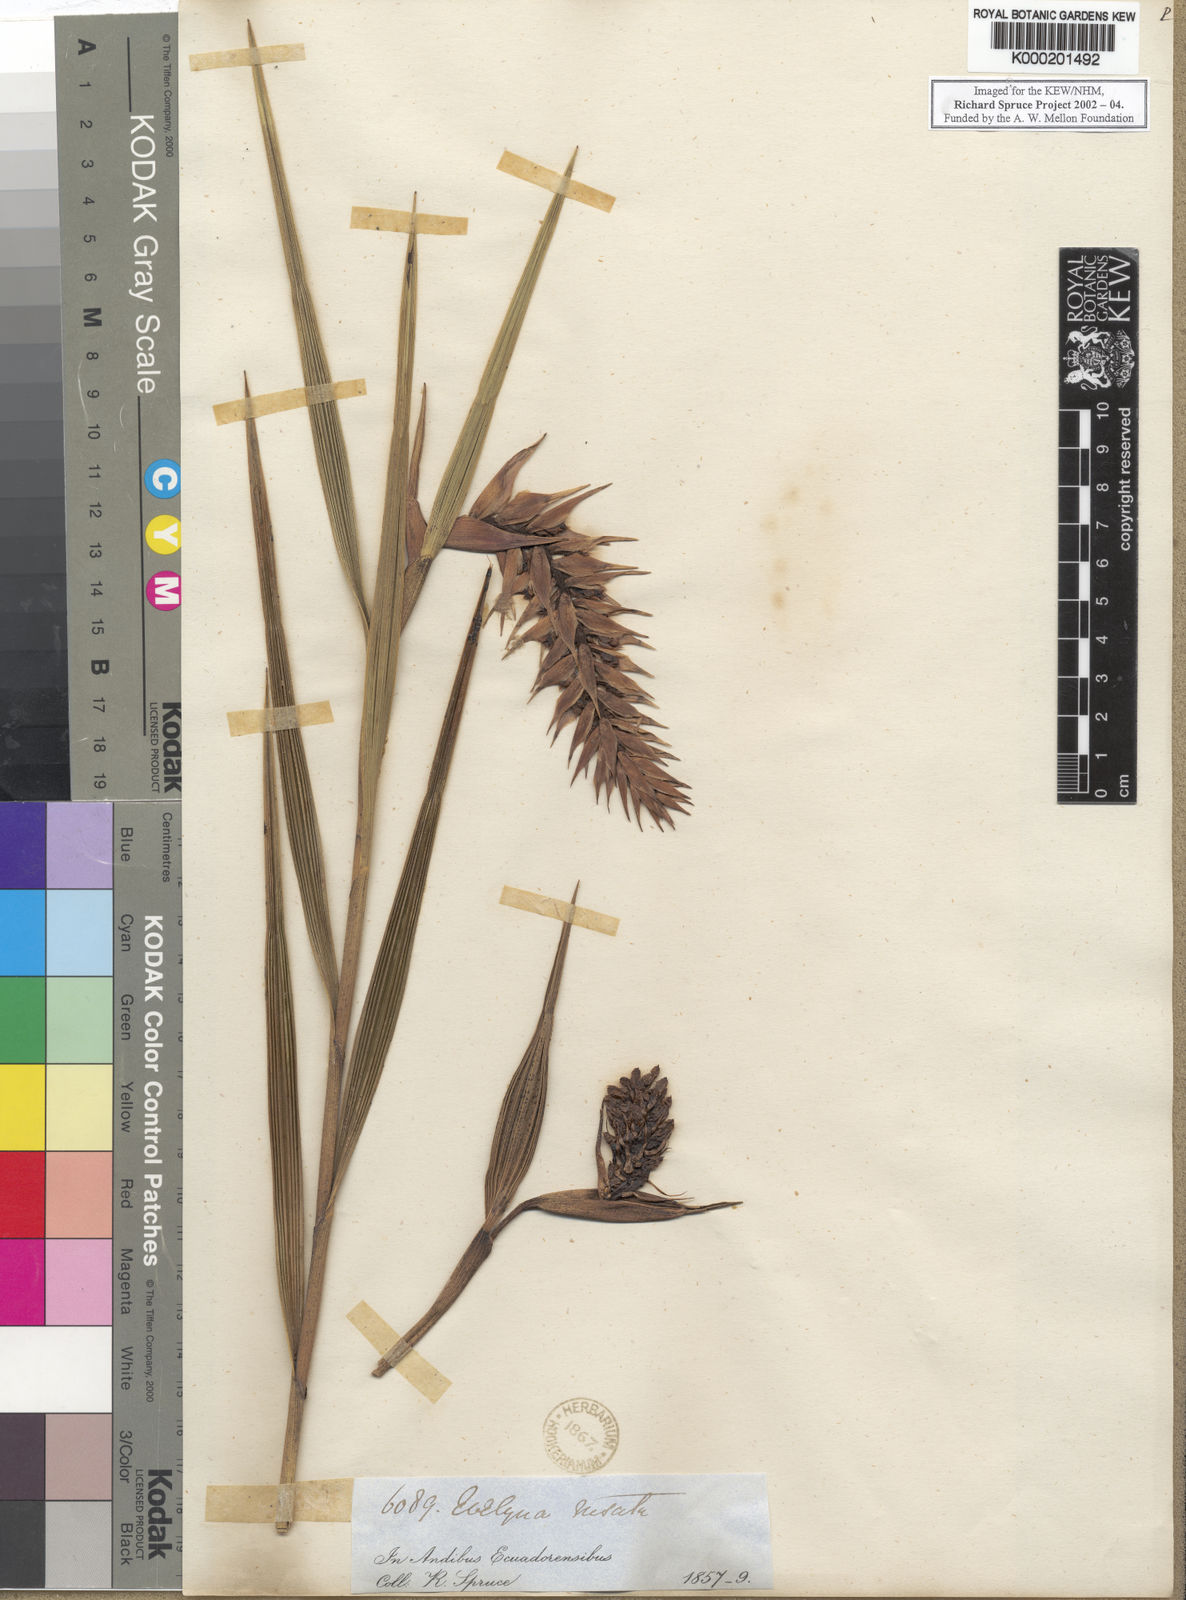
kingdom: Plantae
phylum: Tracheophyta
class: Liliopsida
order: Asparagales
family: Orchidaceae
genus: Elleanthus
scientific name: Elleanthus rhodolepis
